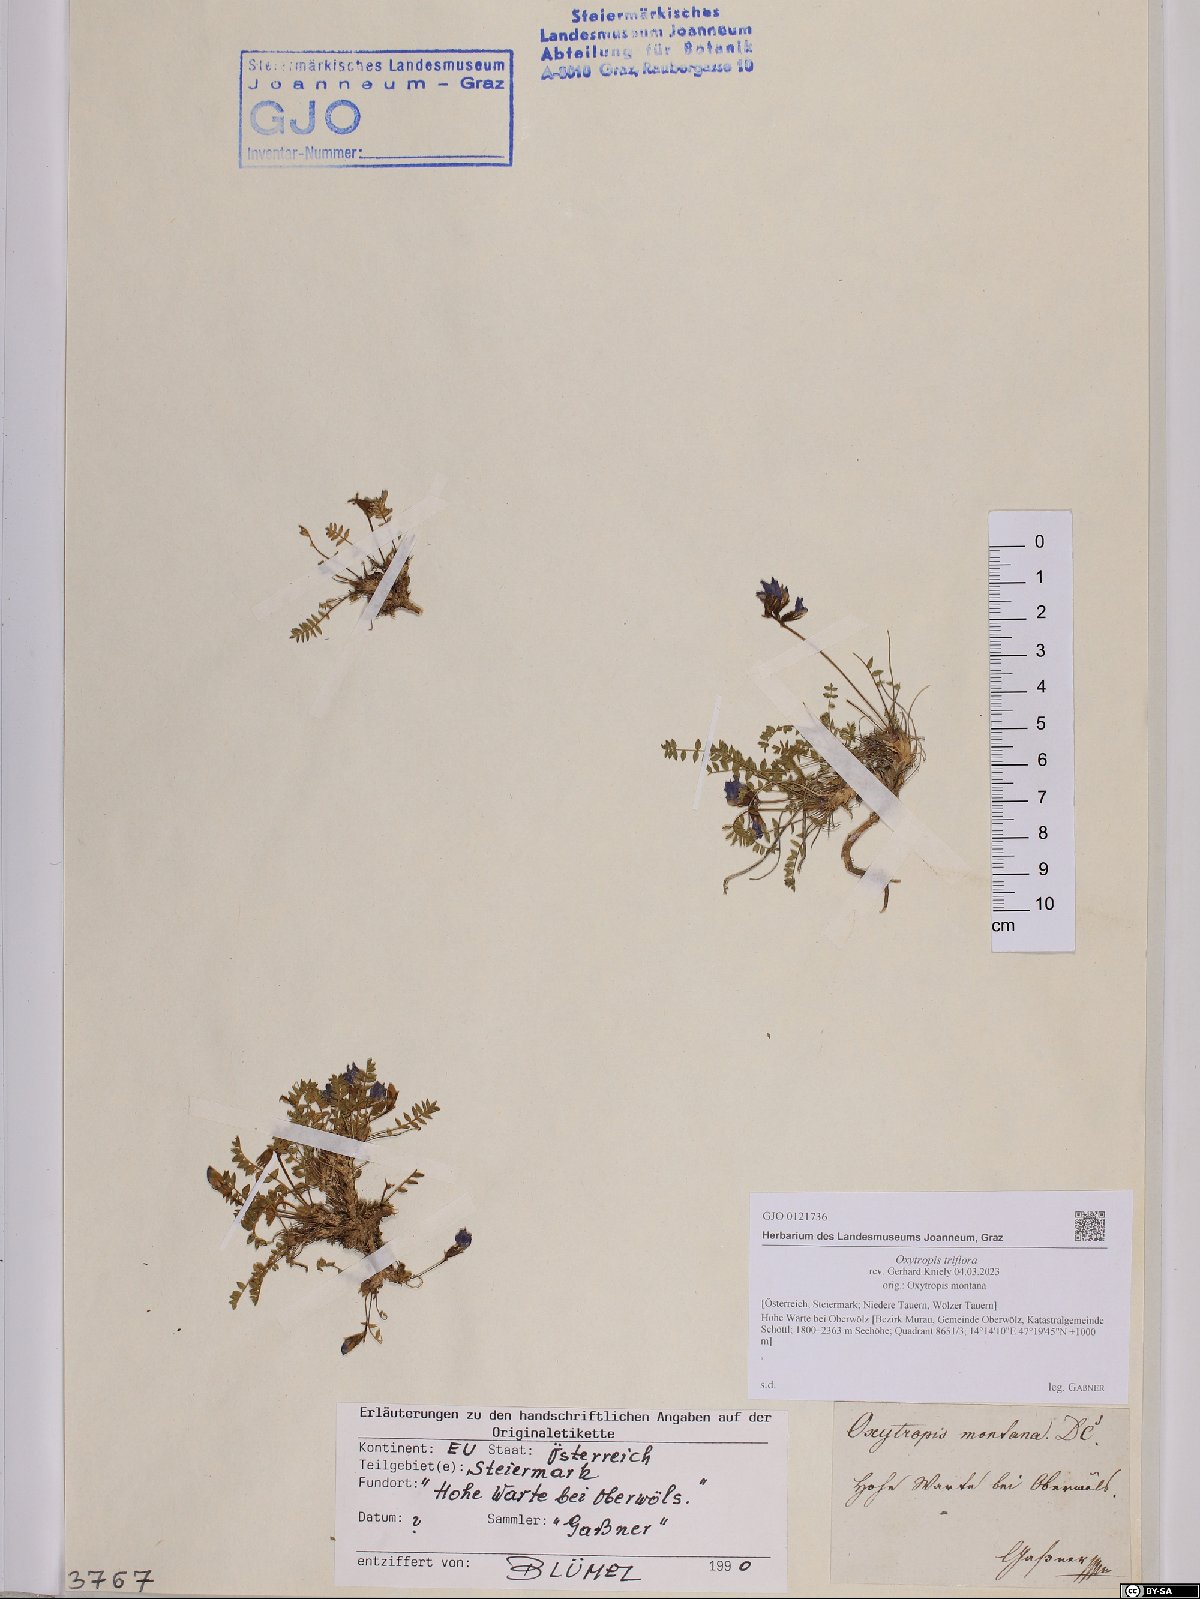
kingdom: Plantae
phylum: Tracheophyta
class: Magnoliopsida
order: Fabales
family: Fabaceae
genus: Oxytropis
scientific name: Oxytropis triflora
